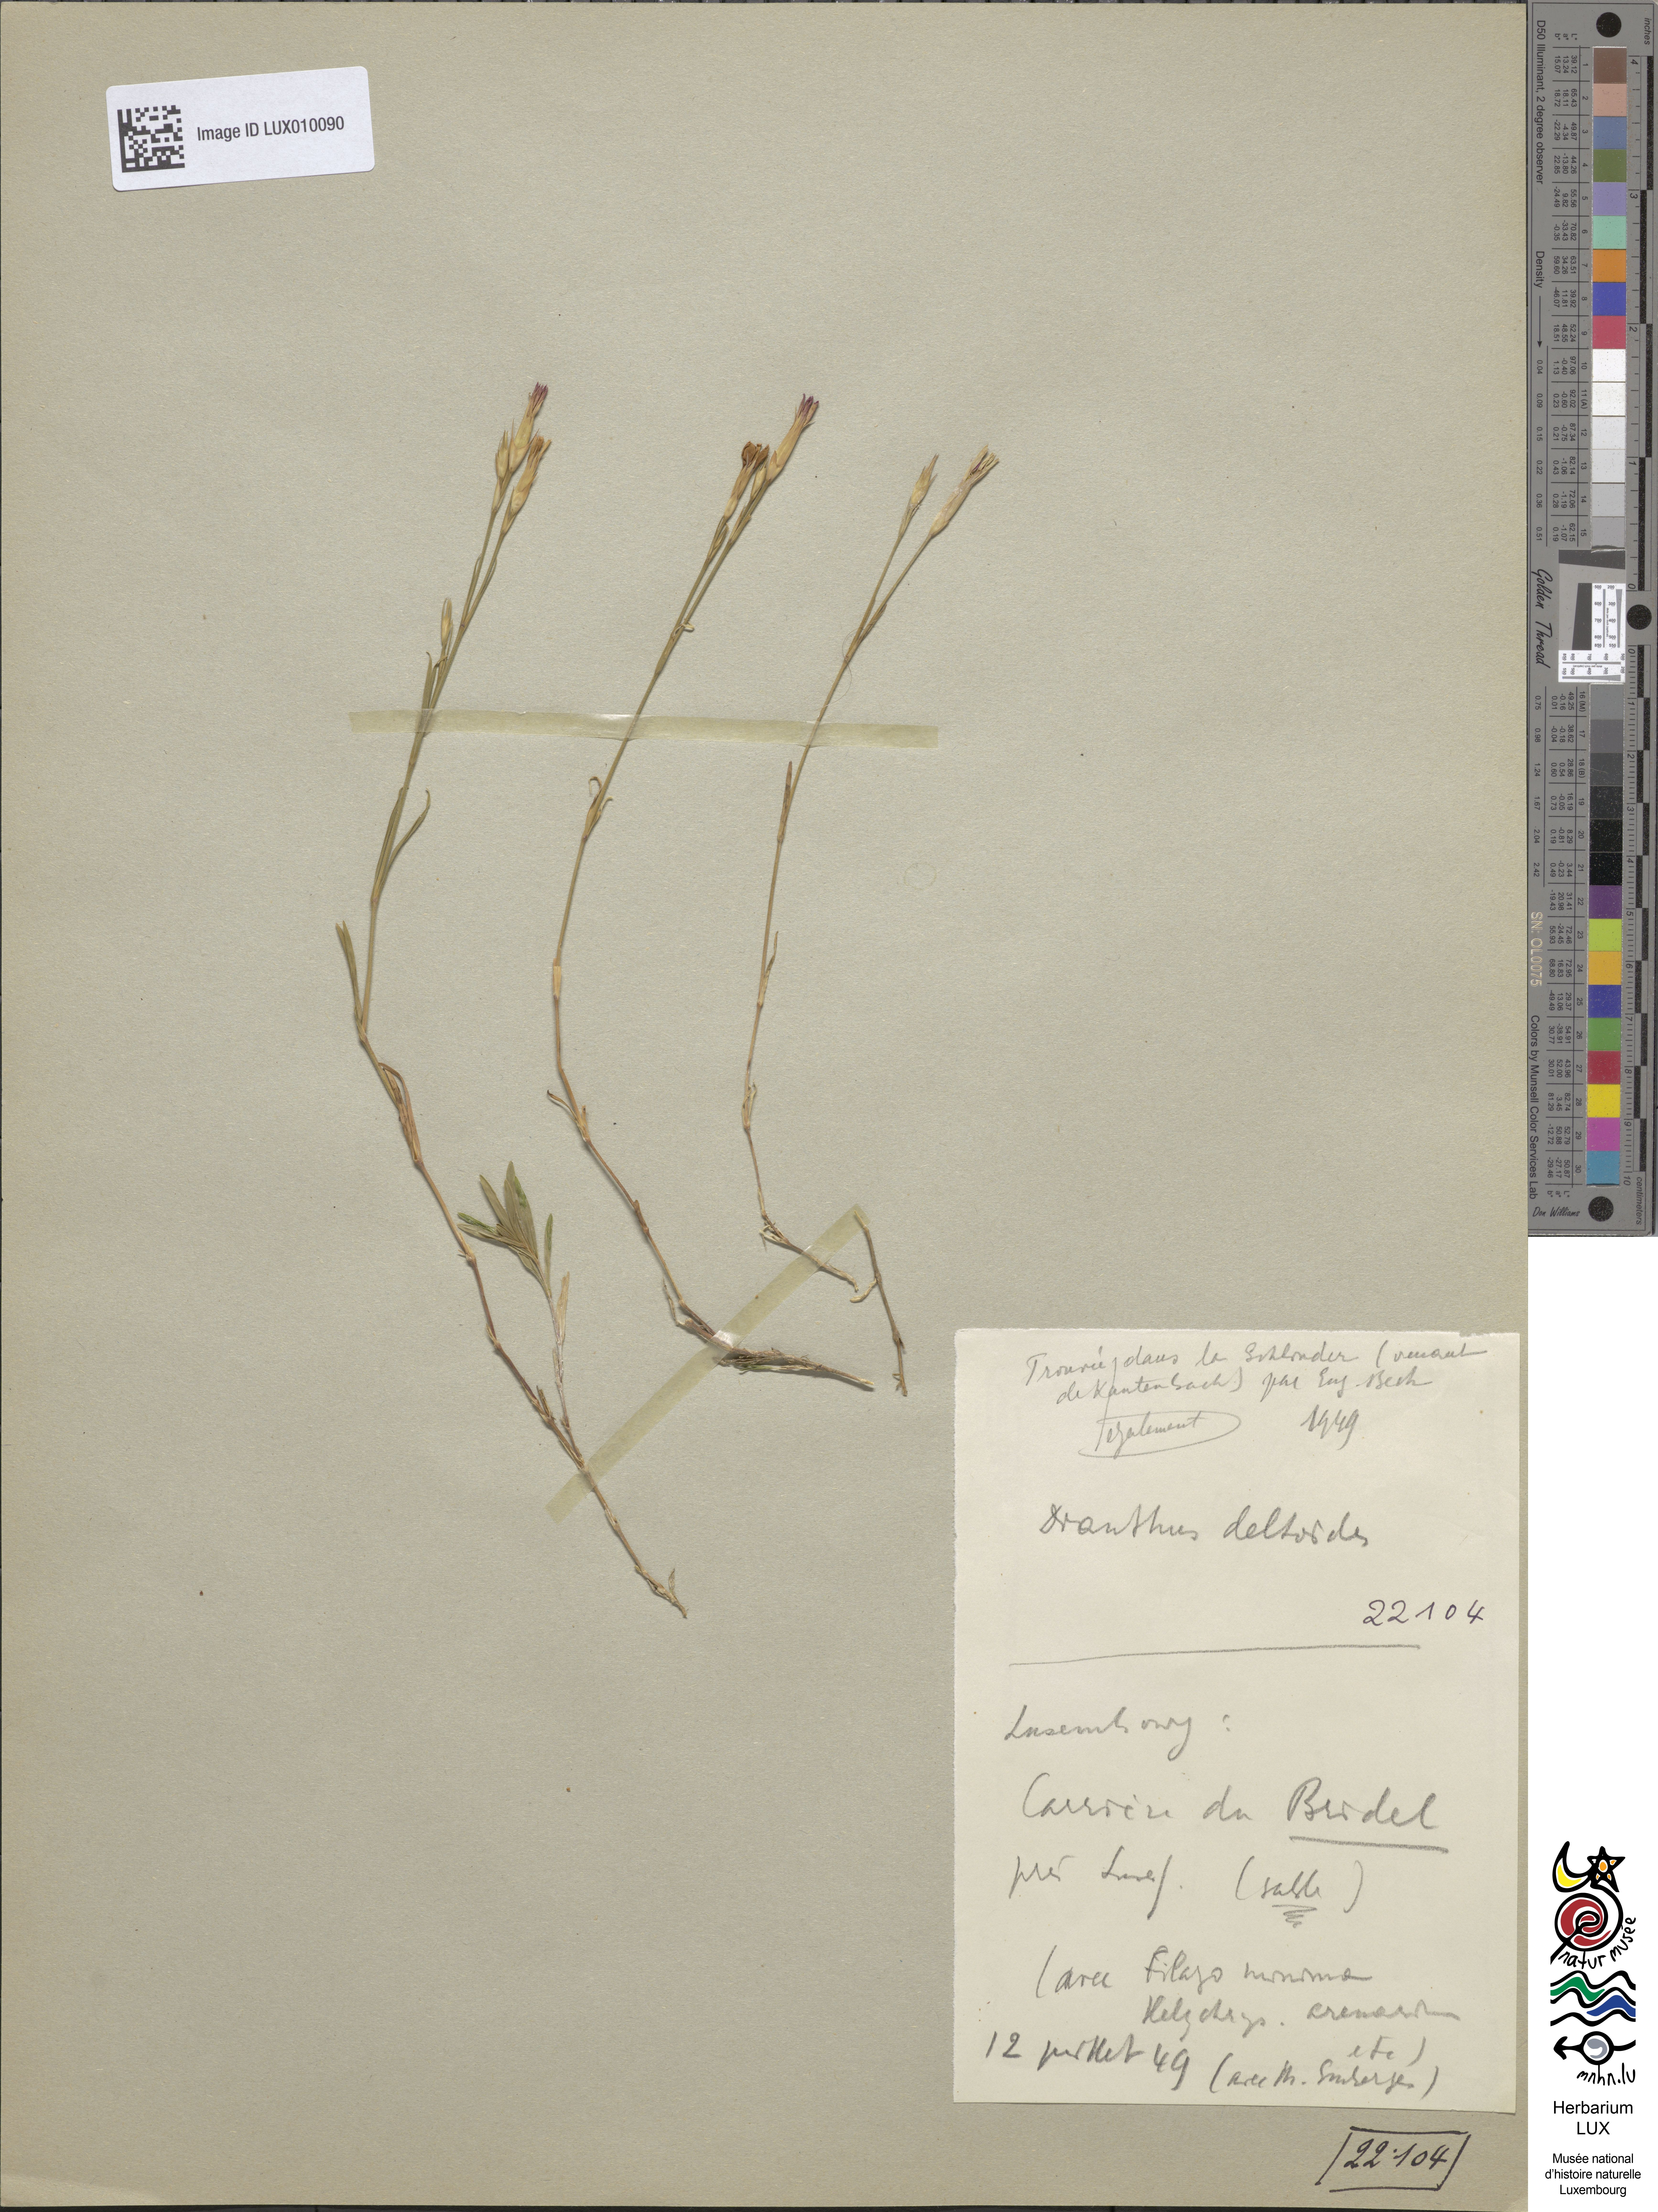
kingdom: Plantae
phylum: Tracheophyta
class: Magnoliopsida
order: Caryophyllales
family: Caryophyllaceae
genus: Dianthus
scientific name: Dianthus deltoides
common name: Maiden pink
